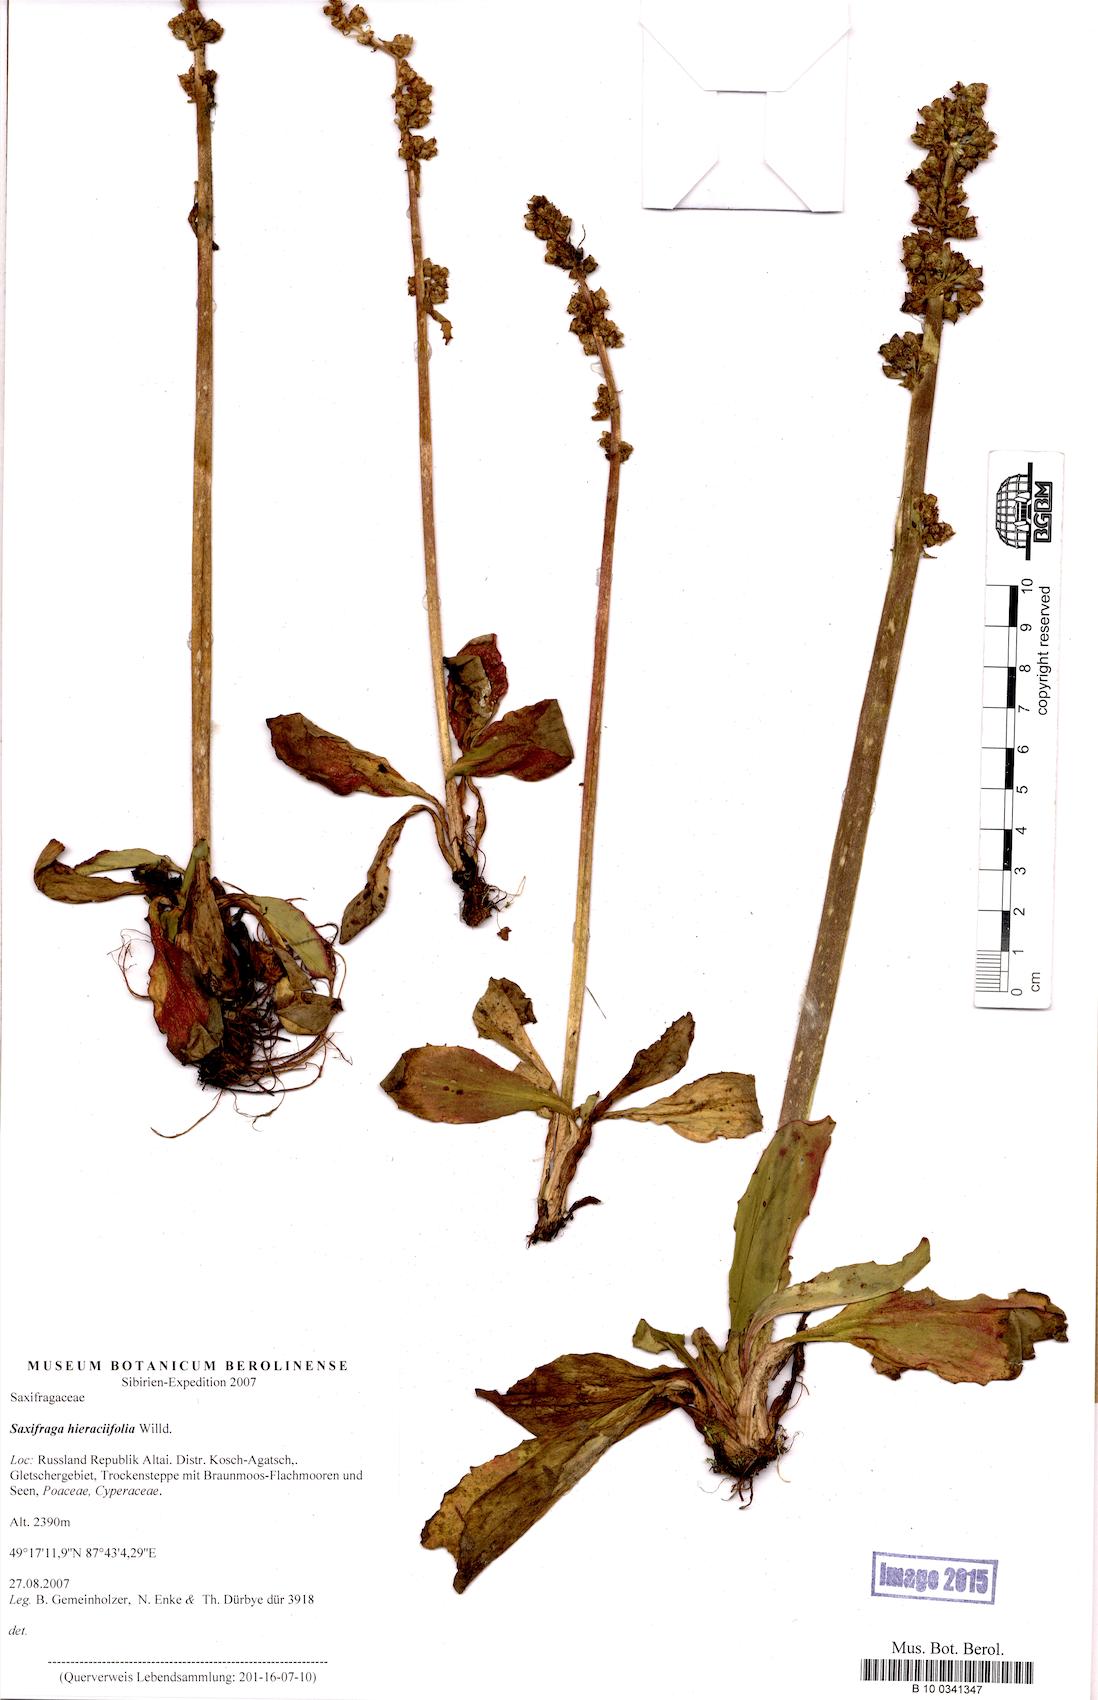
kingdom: Plantae
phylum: Tracheophyta
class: Magnoliopsida
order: Saxifragales
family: Saxifragaceae
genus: Micranthes
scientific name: Micranthes hieraciifolia
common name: Hawkweed-leaved saxifrage
